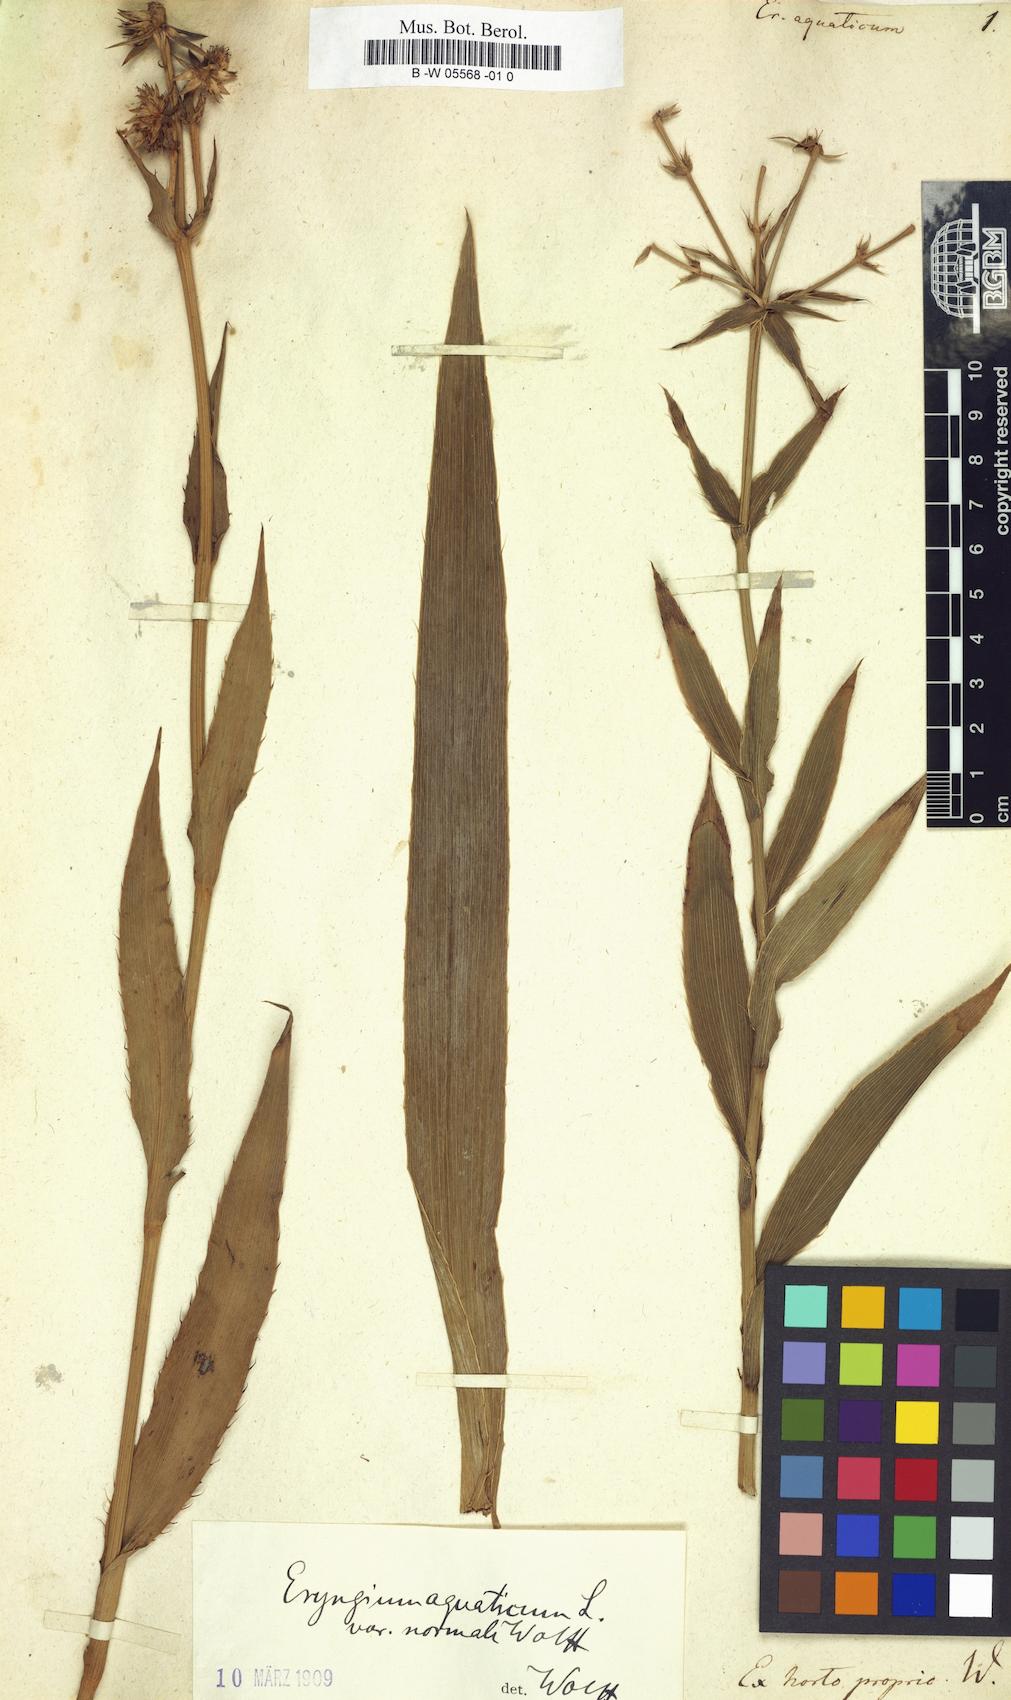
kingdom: Plantae
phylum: Tracheophyta
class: Magnoliopsida
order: Apiales
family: Apiaceae
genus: Eryngium
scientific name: Eryngium aquaticum
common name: Water eryngo
